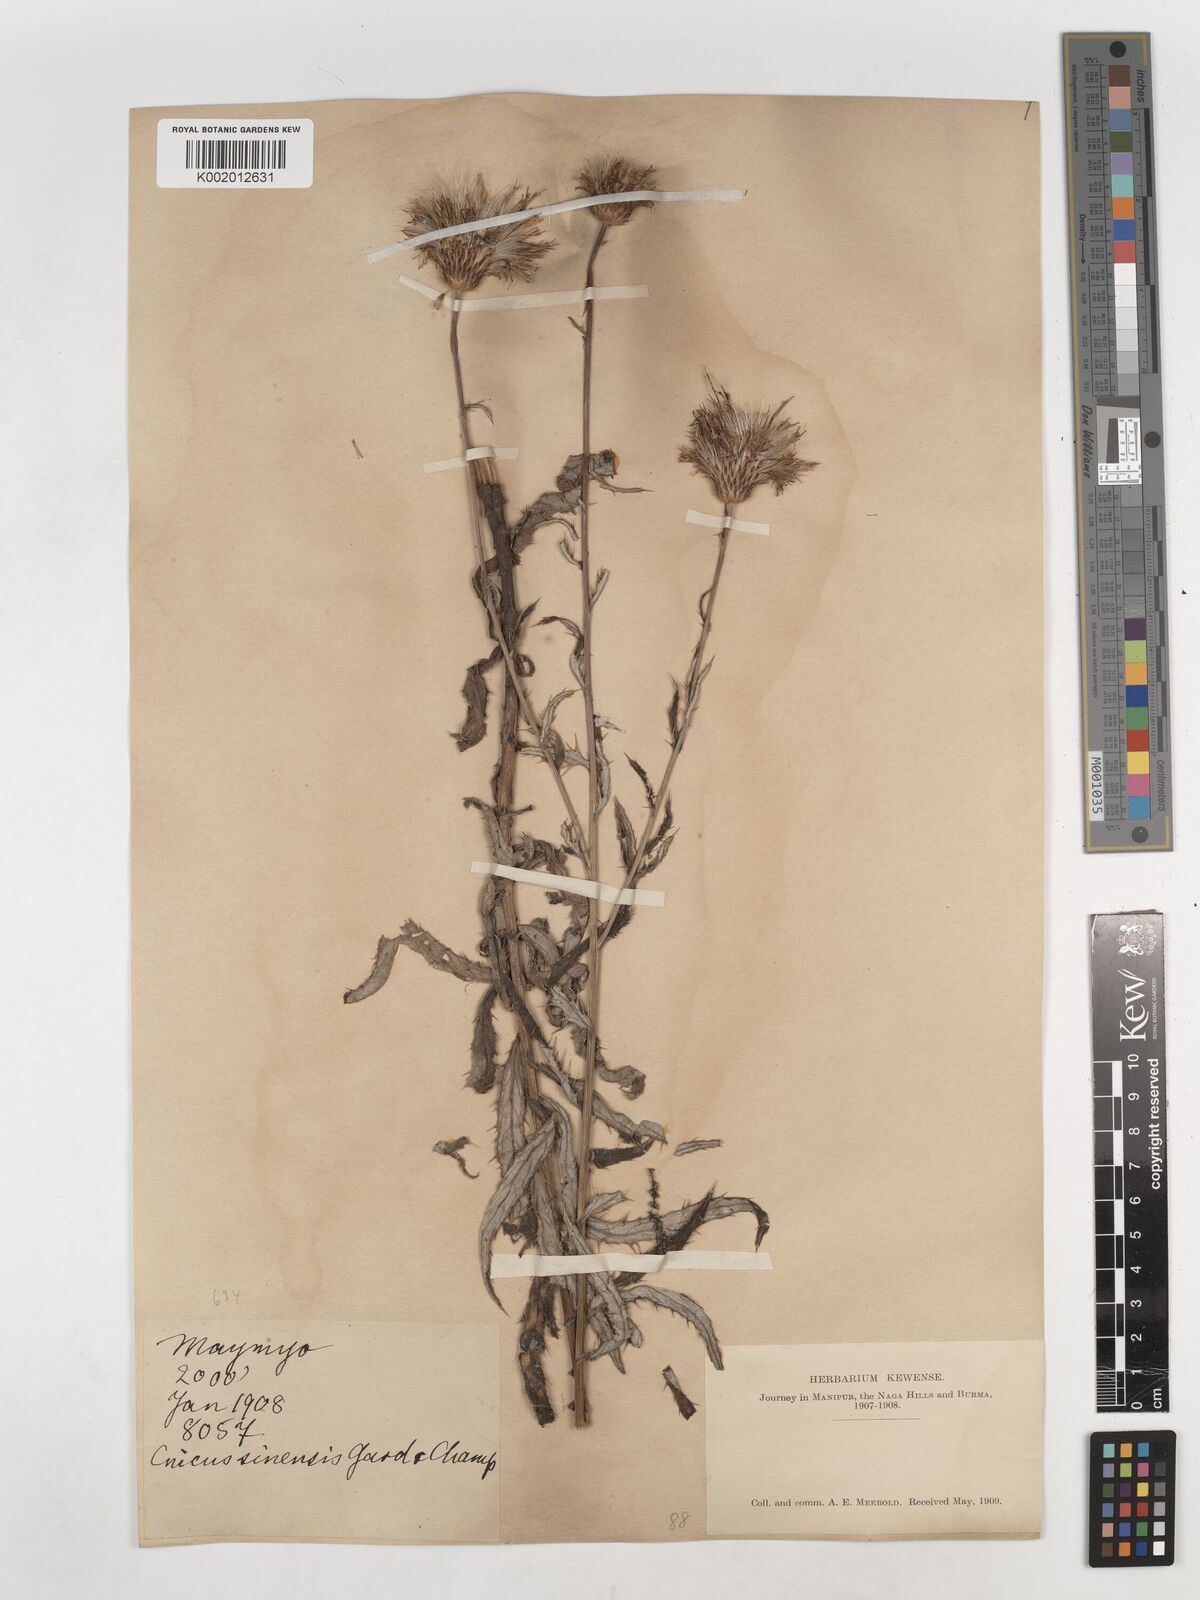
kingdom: Plantae
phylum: Tracheophyta
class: Magnoliopsida
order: Asterales
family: Asteraceae
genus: Cirsium
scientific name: Cirsium lineare
